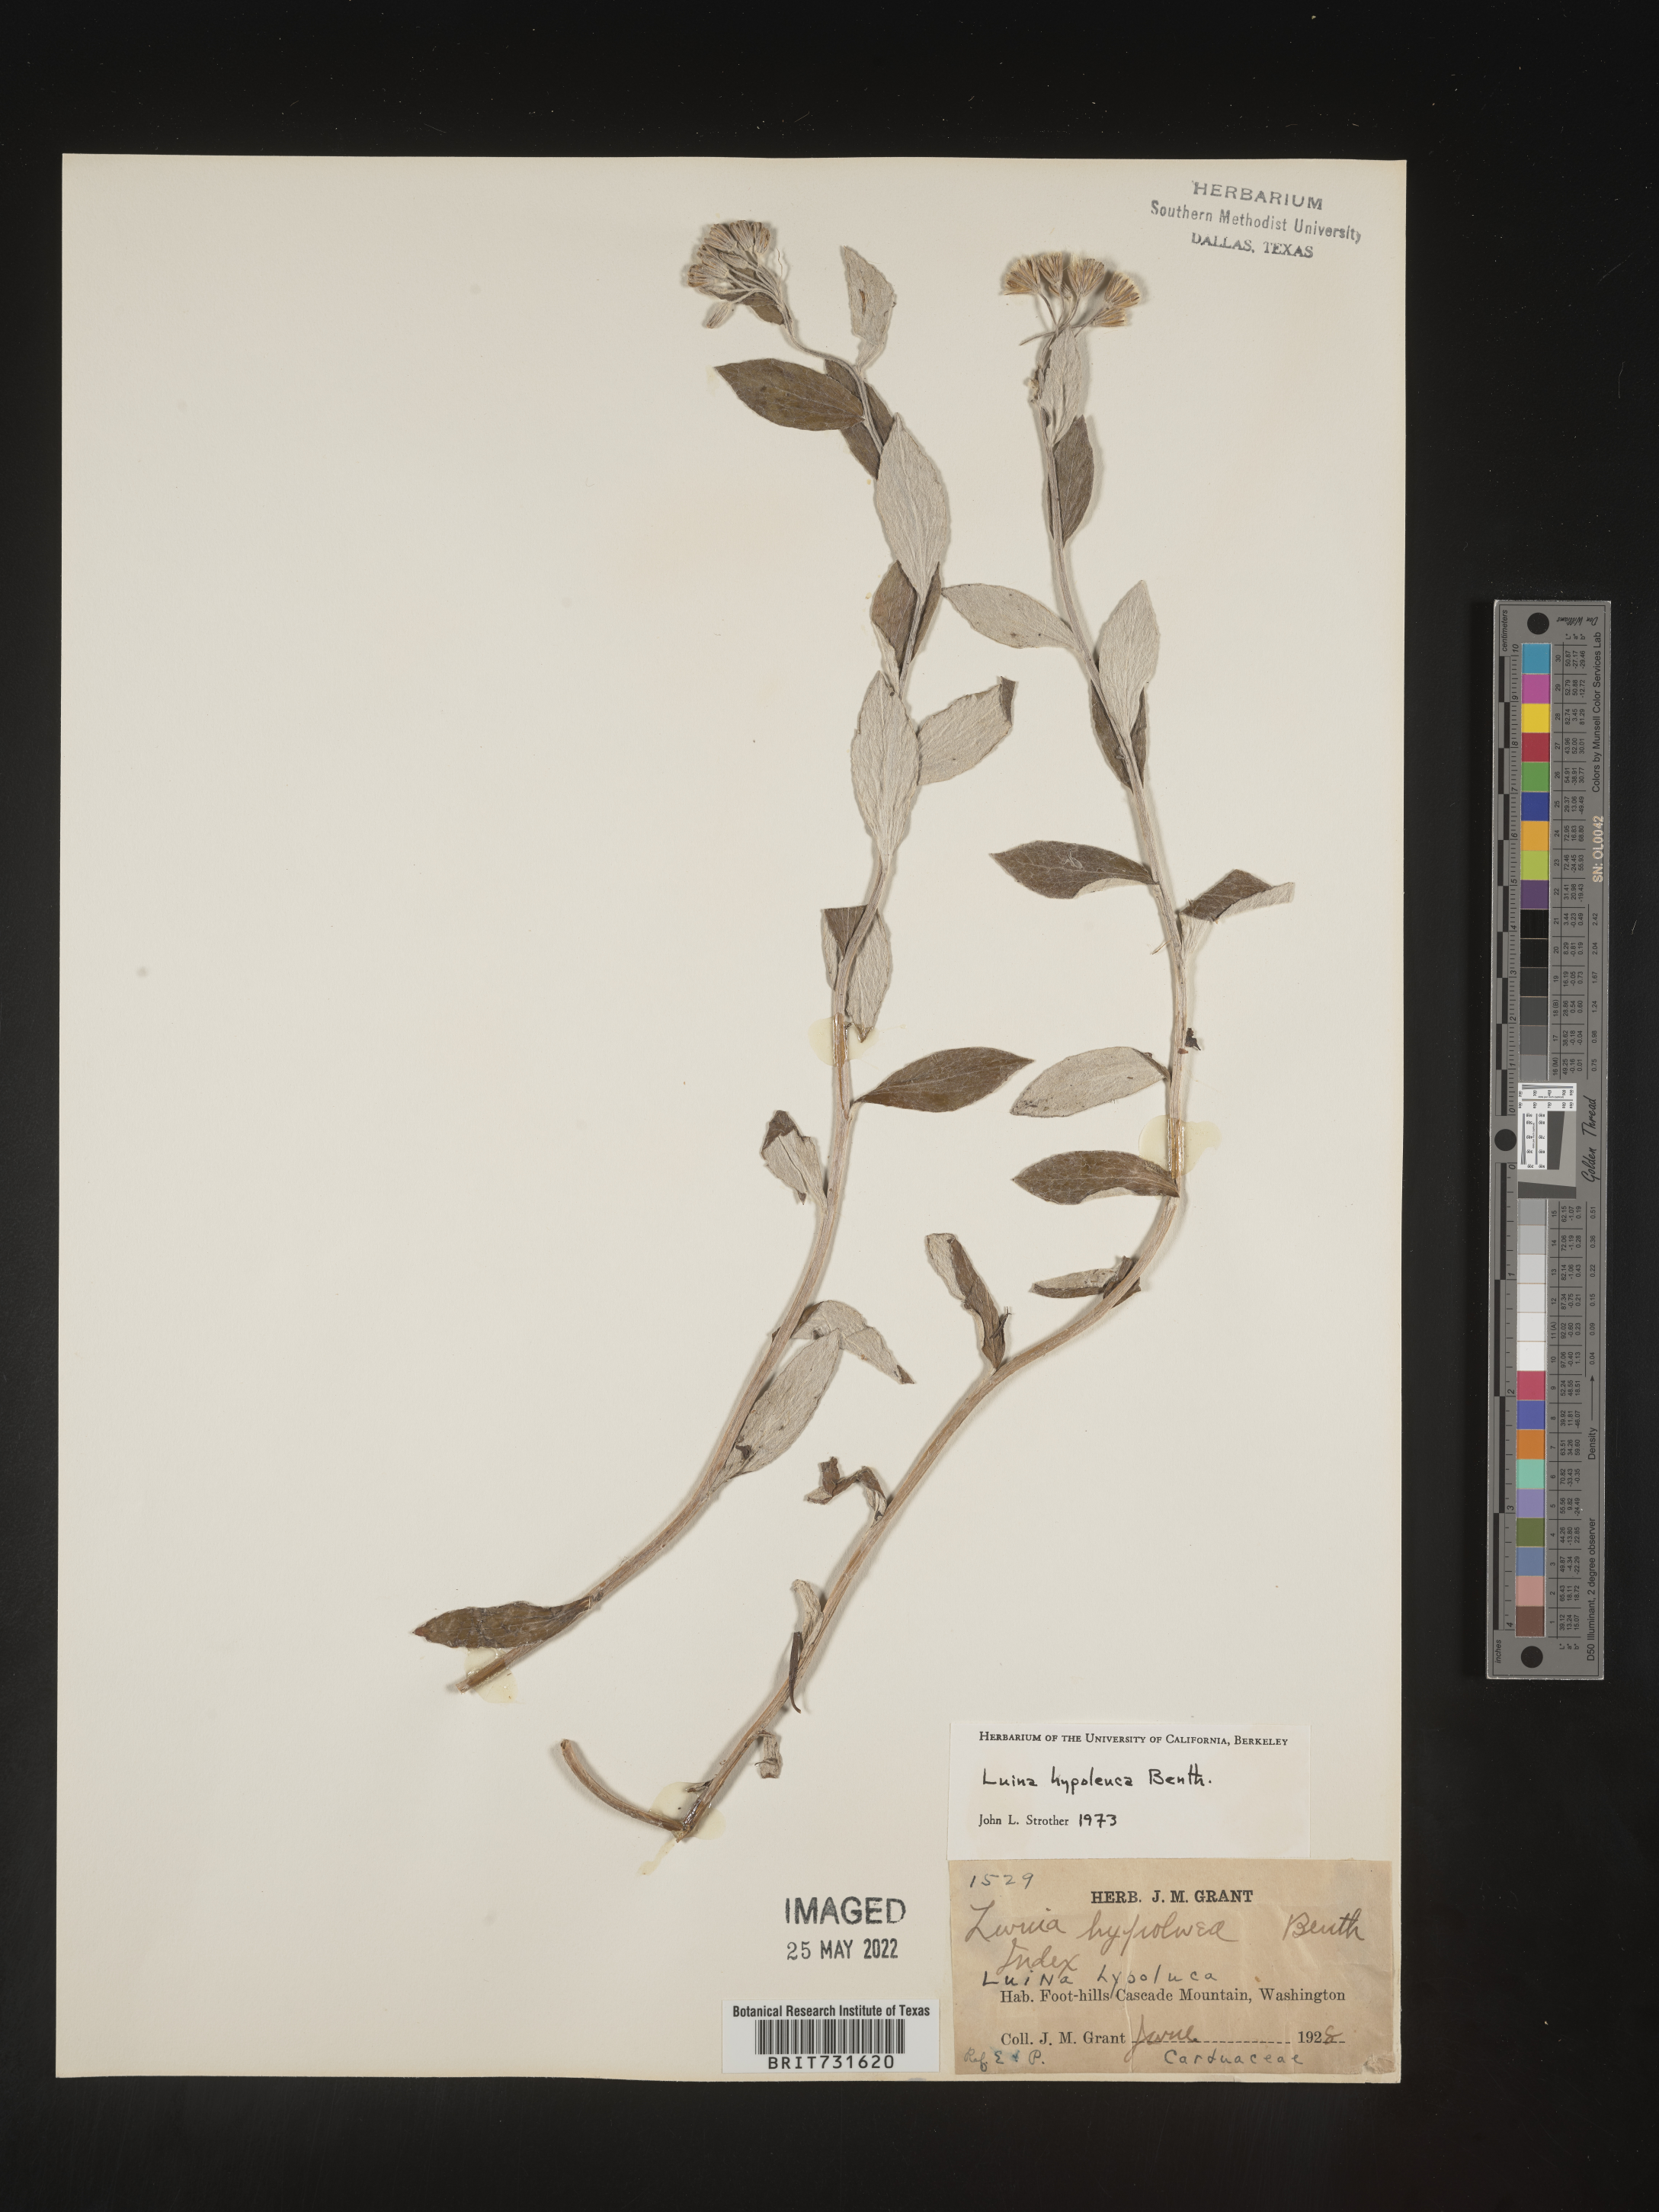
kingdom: Plantae
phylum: Tracheophyta
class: Magnoliopsida
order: Asterales
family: Asteraceae
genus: Luina
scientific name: Luina hypoleuca
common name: Little-leaved luina
